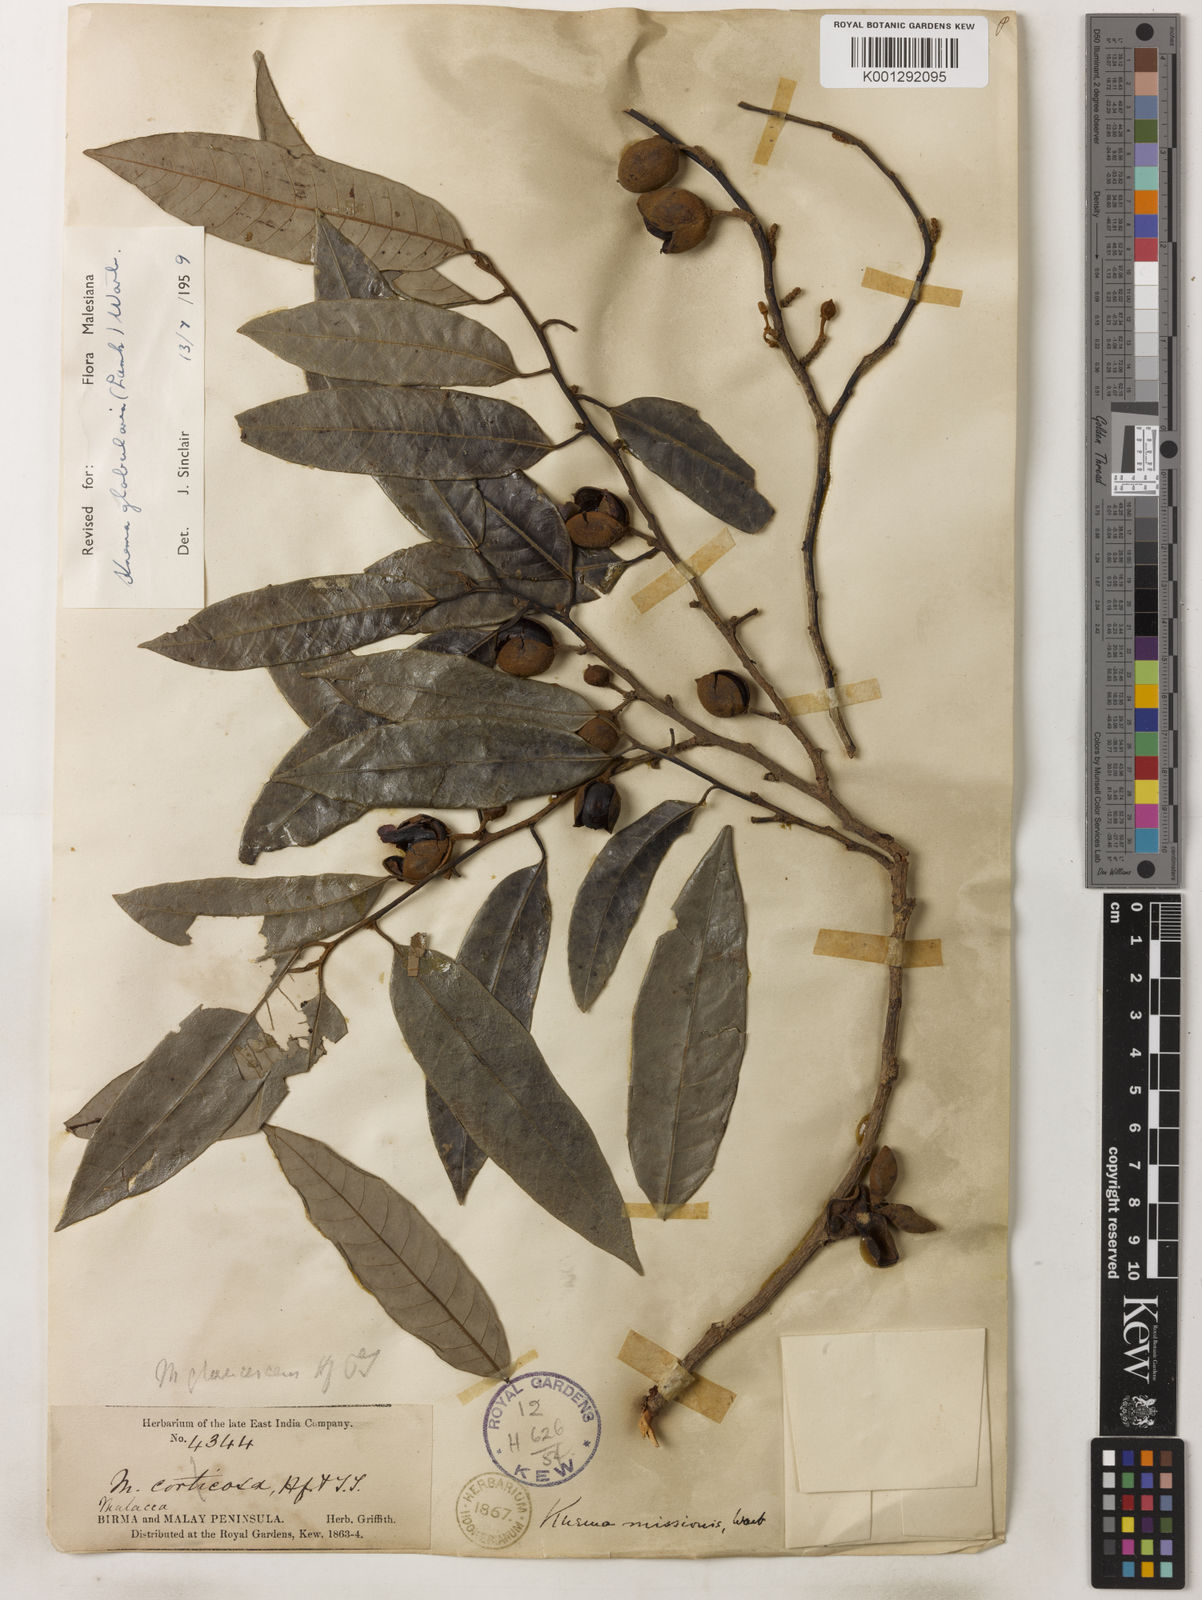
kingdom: Plantae
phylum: Tracheophyta
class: Magnoliopsida
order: Magnoliales
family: Myristicaceae
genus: Knema
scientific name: Knema globularia
